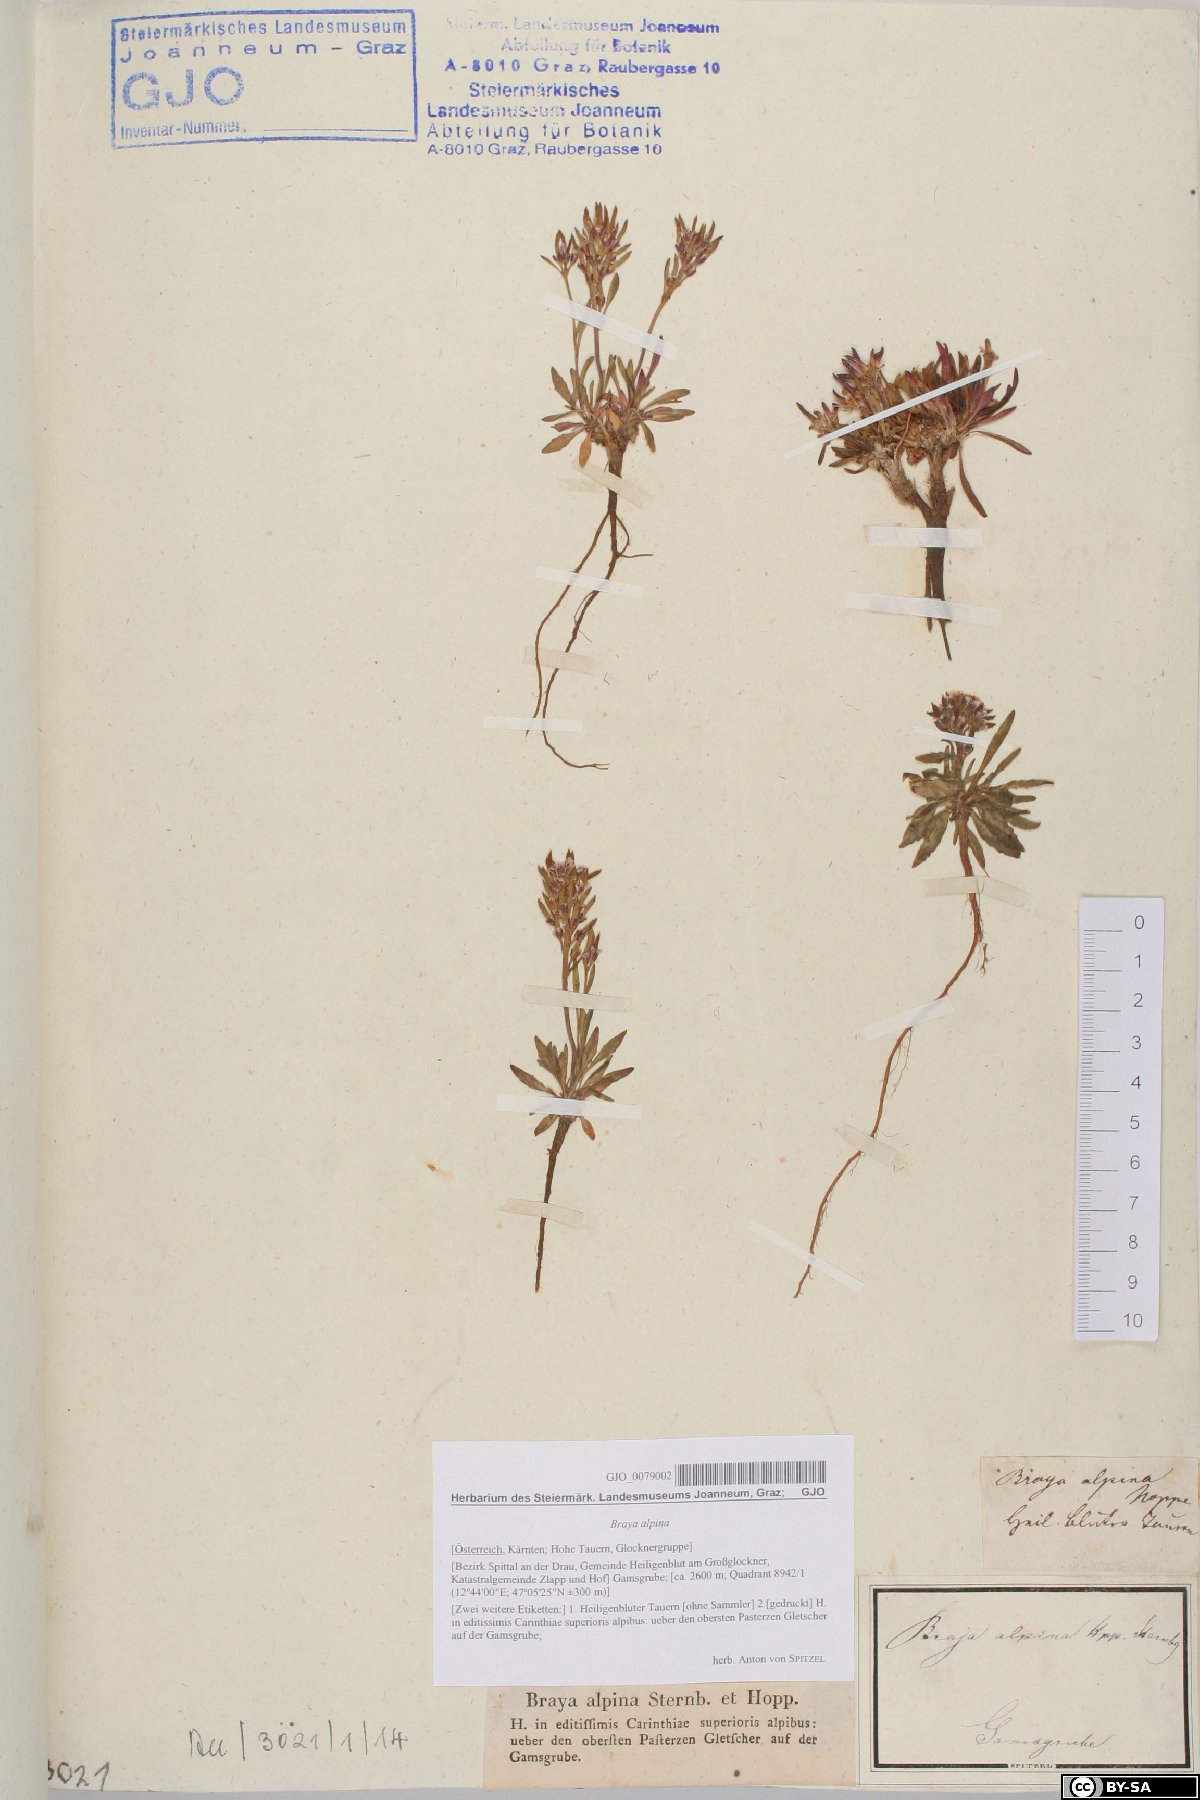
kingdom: Plantae
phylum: Tracheophyta
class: Magnoliopsida
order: Brassicales
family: Brassicaceae
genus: Braya
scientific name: Braya alpina
